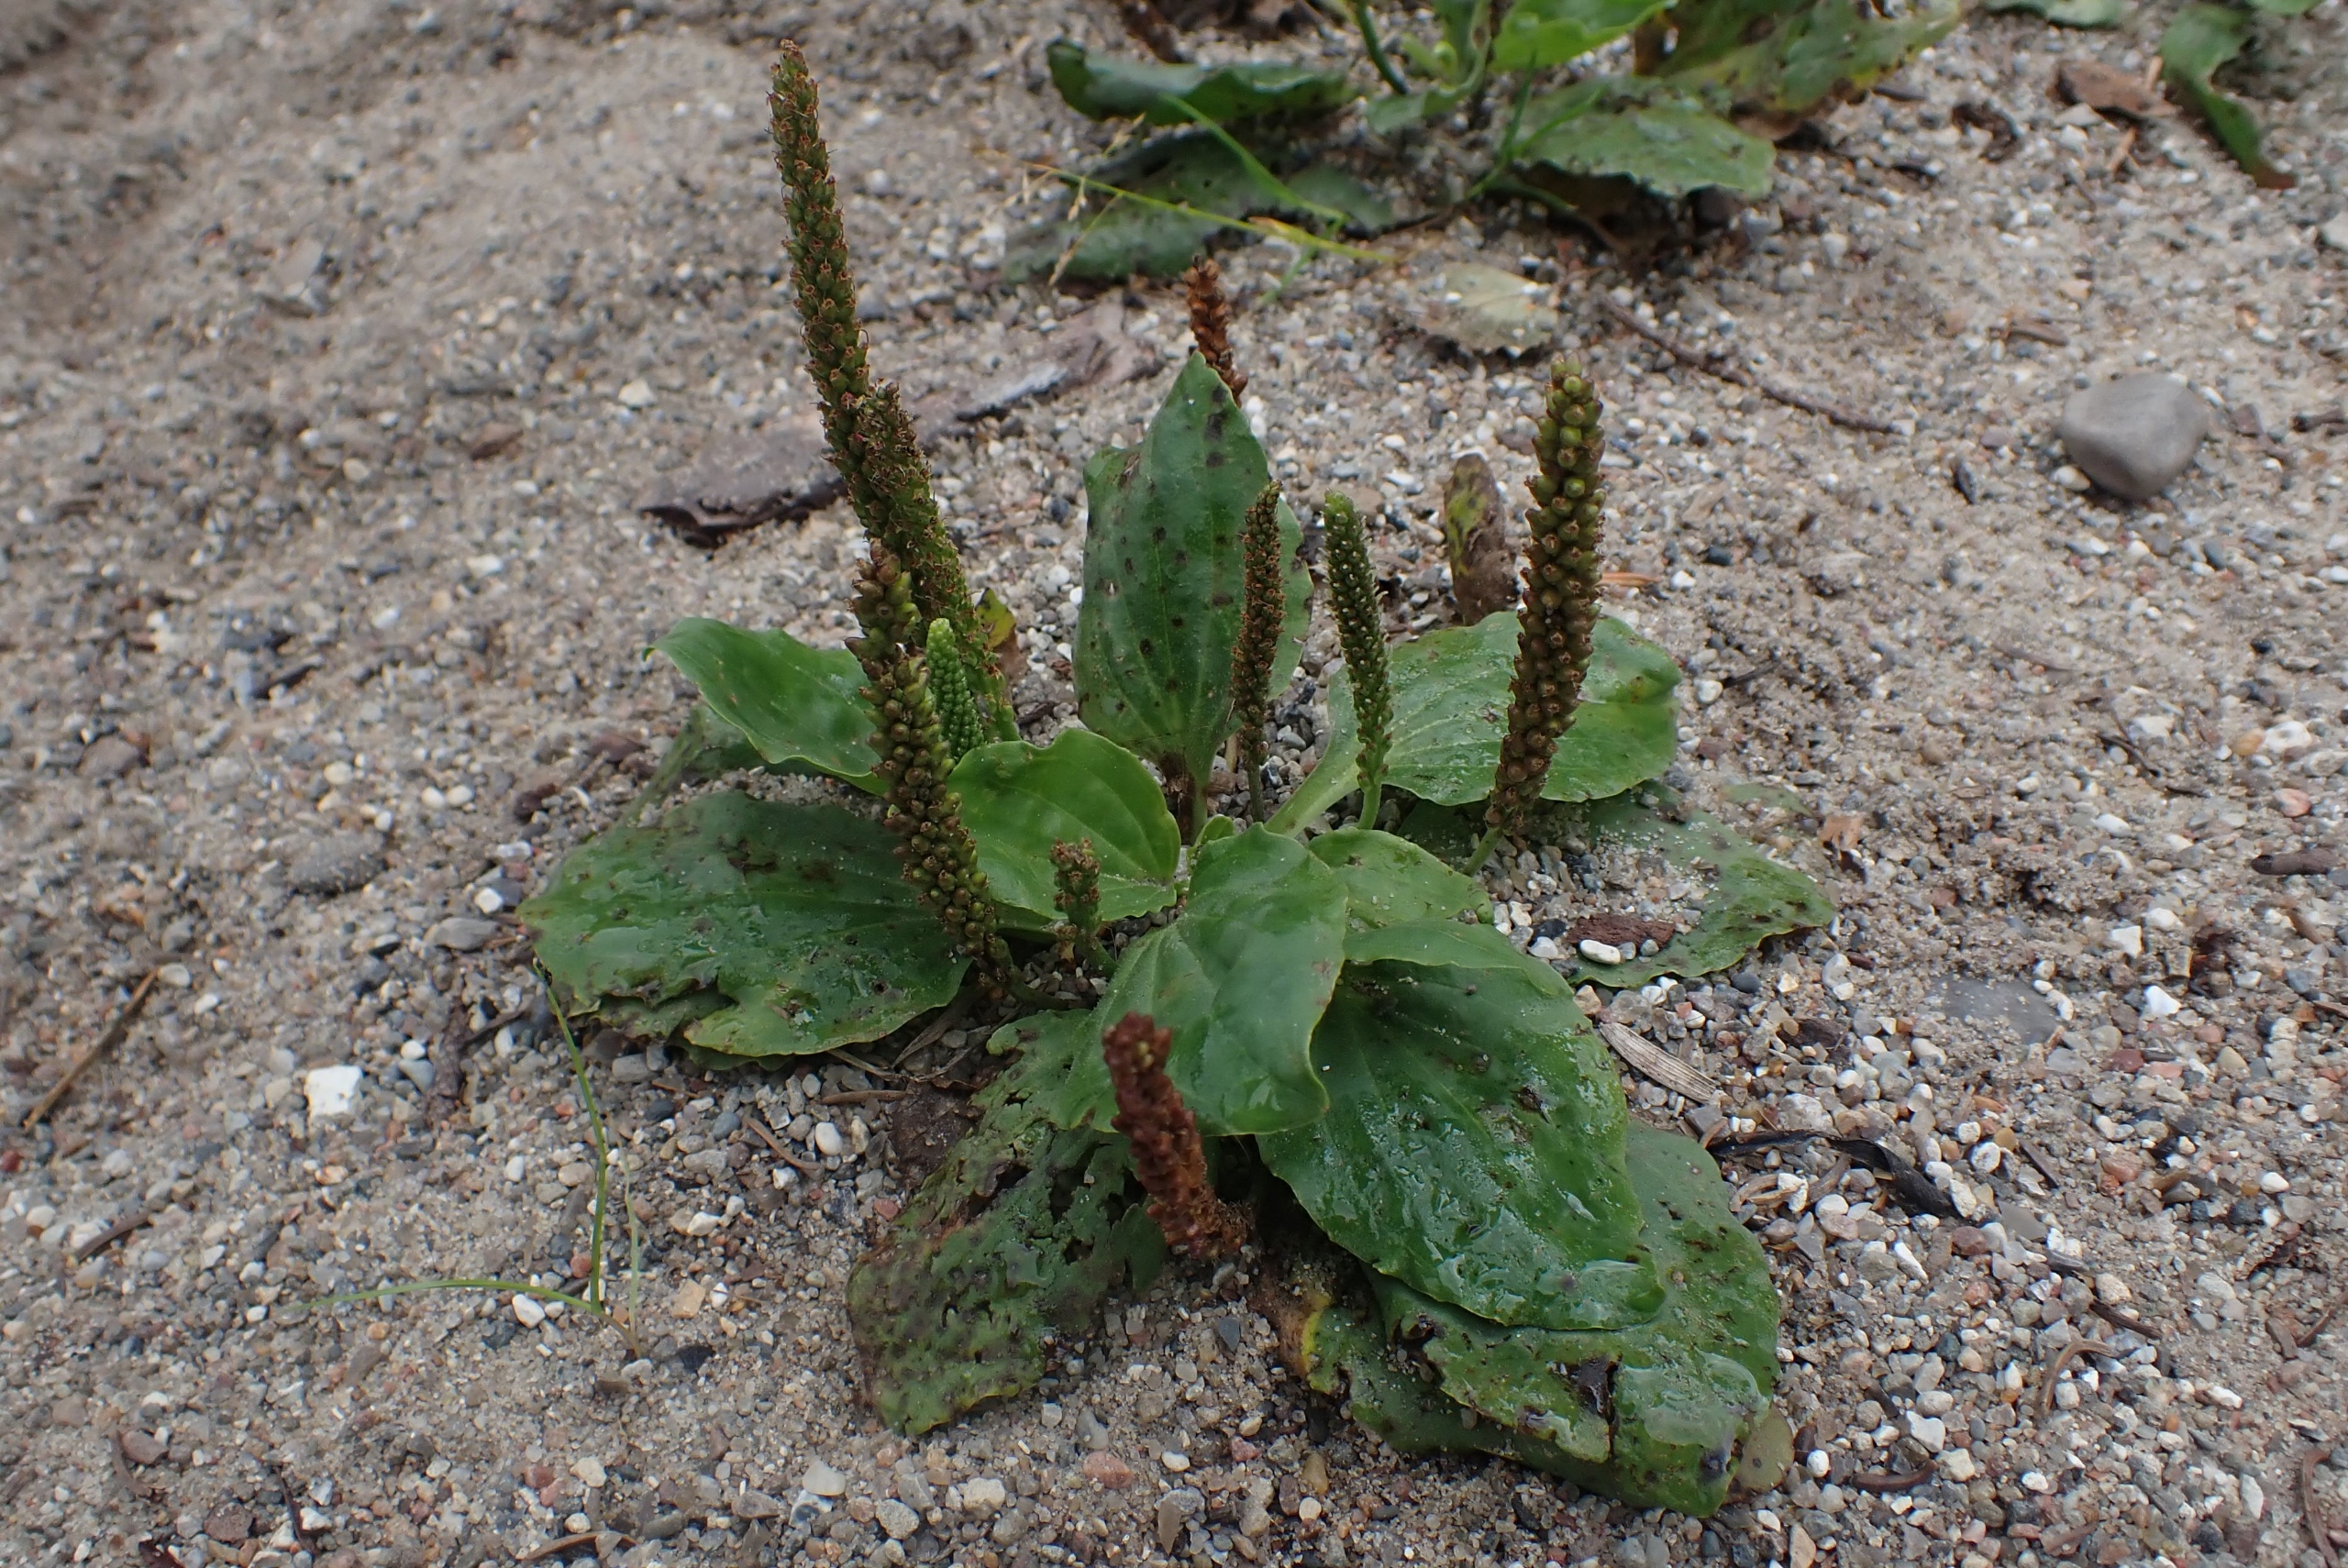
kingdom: Plantae
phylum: Tracheophyta
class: Magnoliopsida
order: Lamiales
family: Plantaginaceae
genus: Plantago
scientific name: Plantago uliginosa
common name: Ager-vejbred
